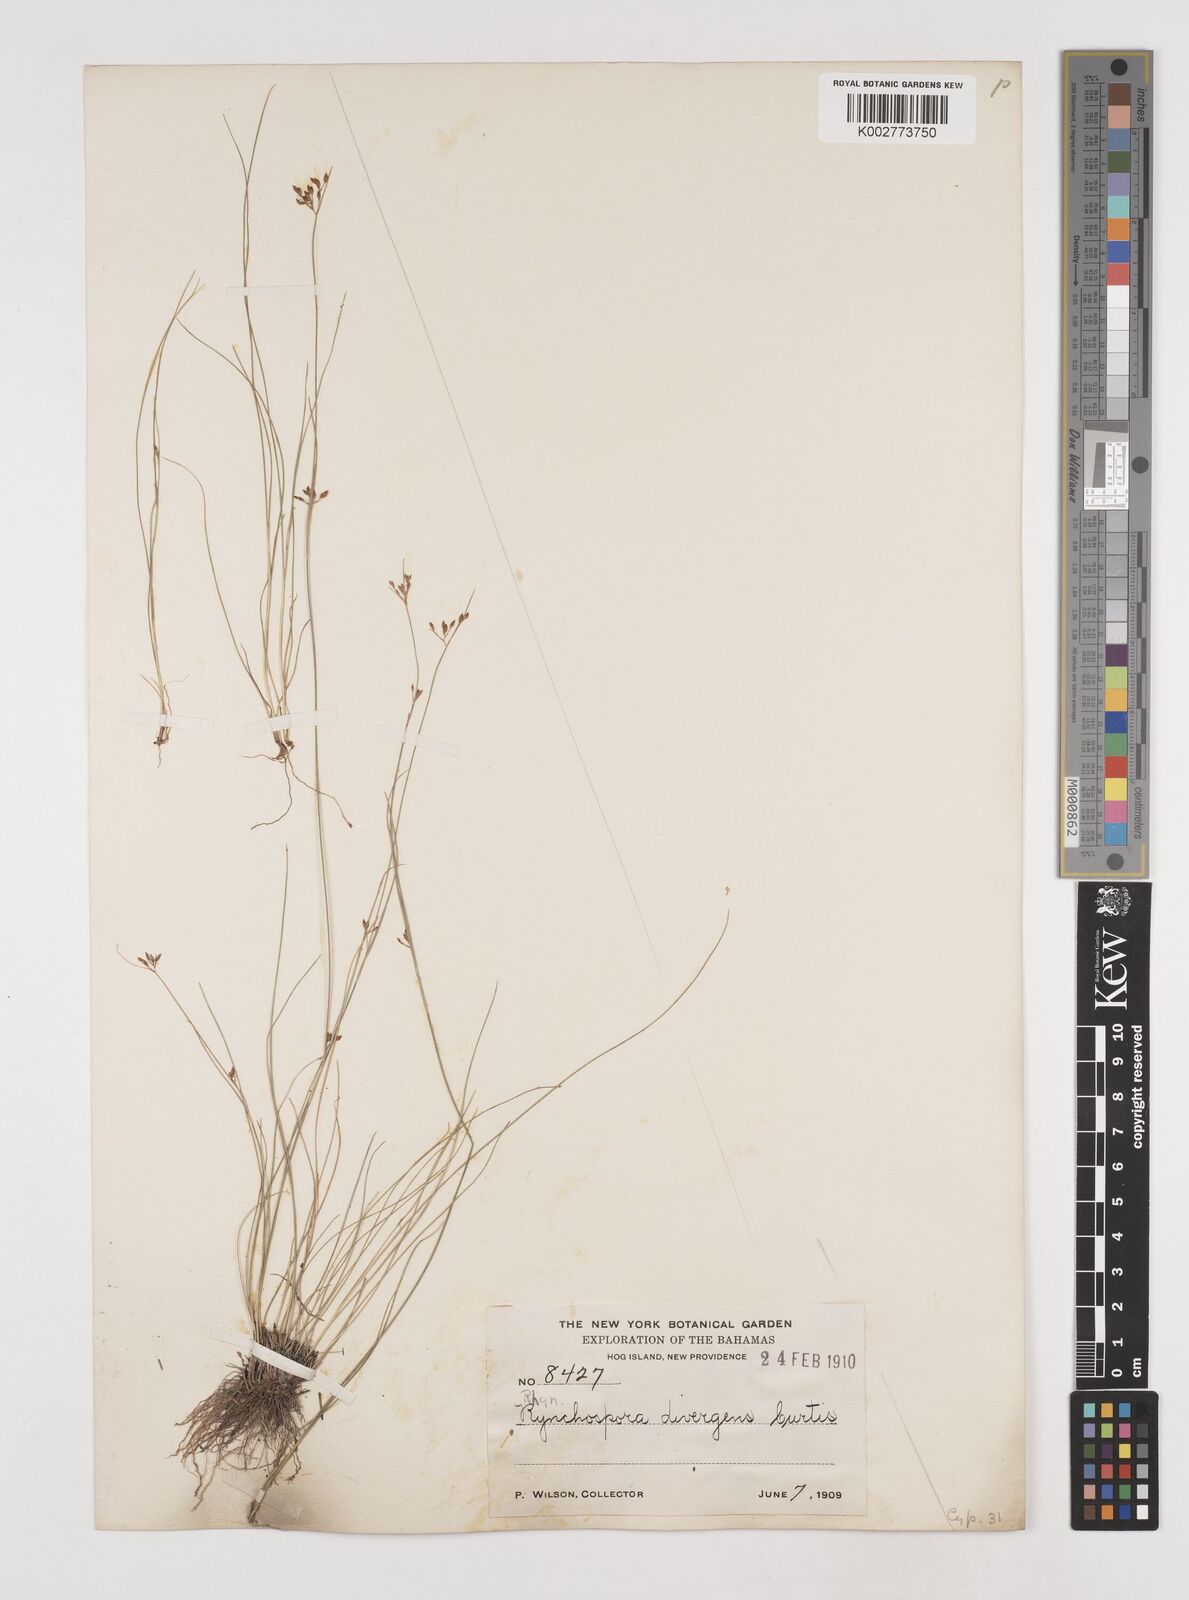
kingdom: Plantae
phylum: Tracheophyta
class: Liliopsida
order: Poales
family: Cyperaceae
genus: Rhynchospora
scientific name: Rhynchospora divergens
